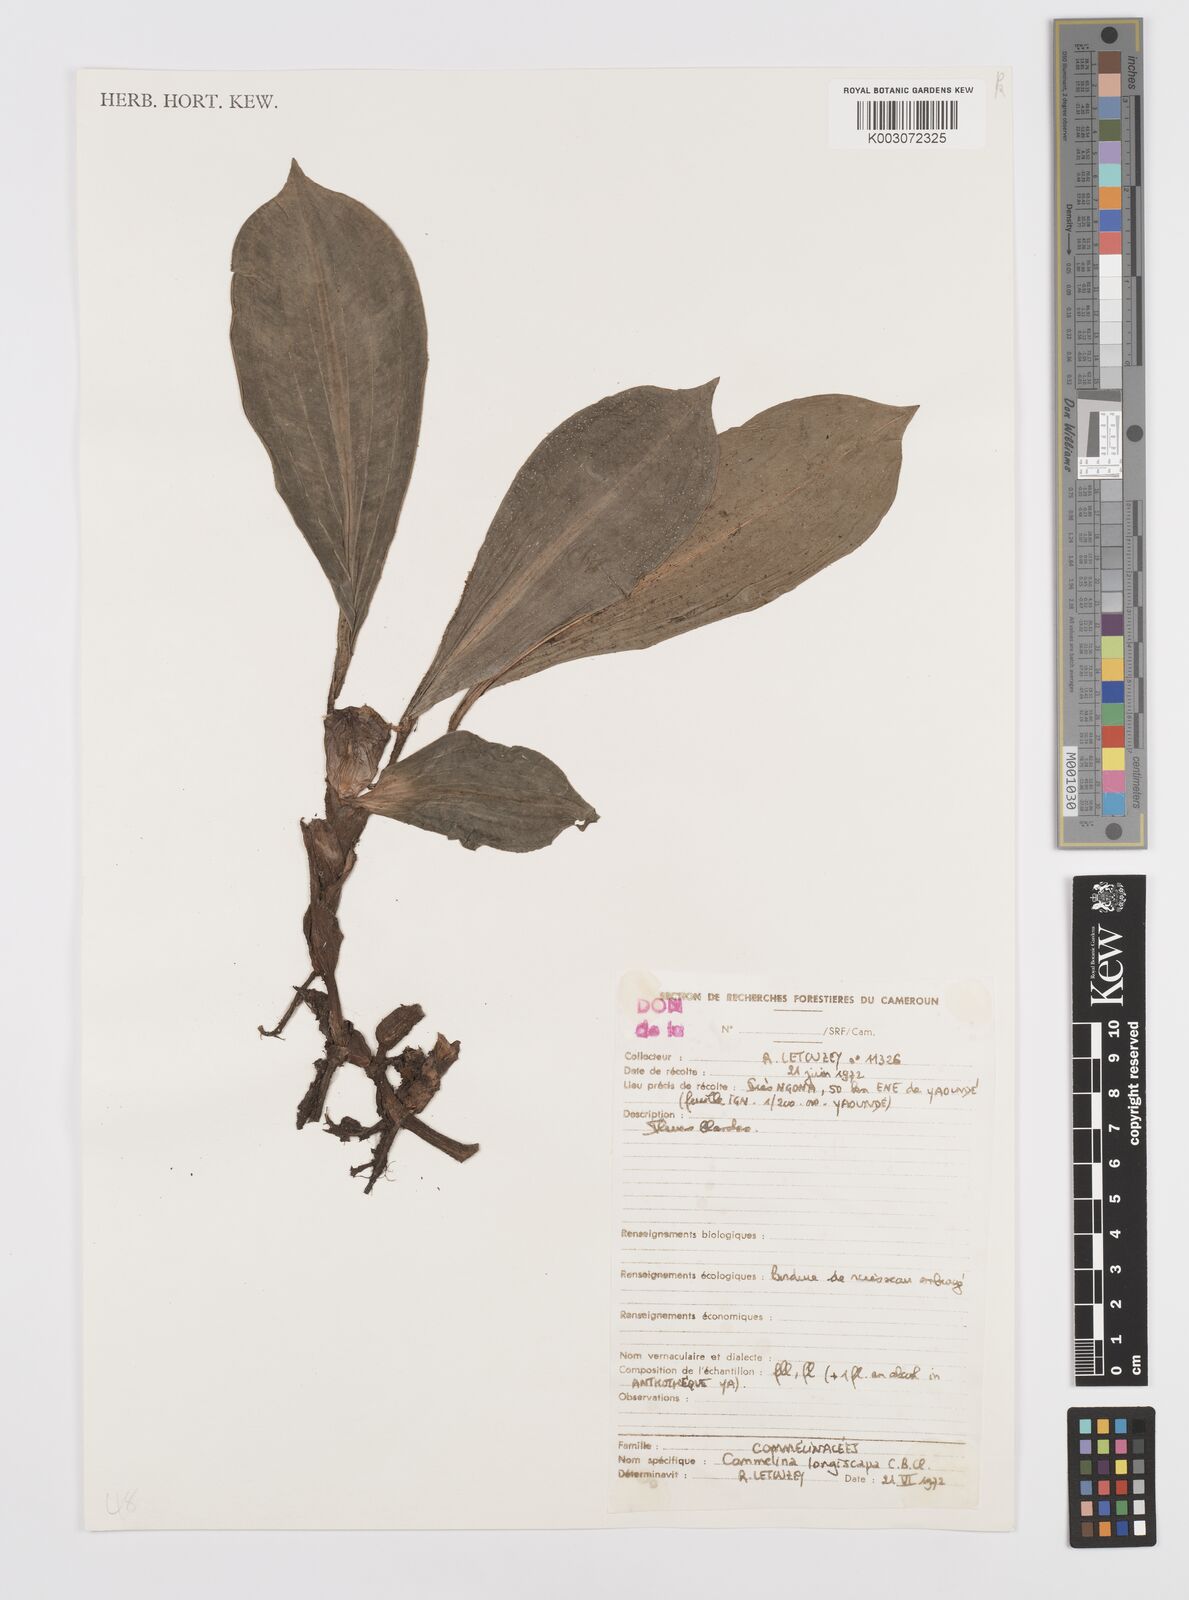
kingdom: Plantae
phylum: Tracheophyta
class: Liliopsida
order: Commelinales
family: Commelinaceae
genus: Commelina
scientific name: Commelina longicapsa
